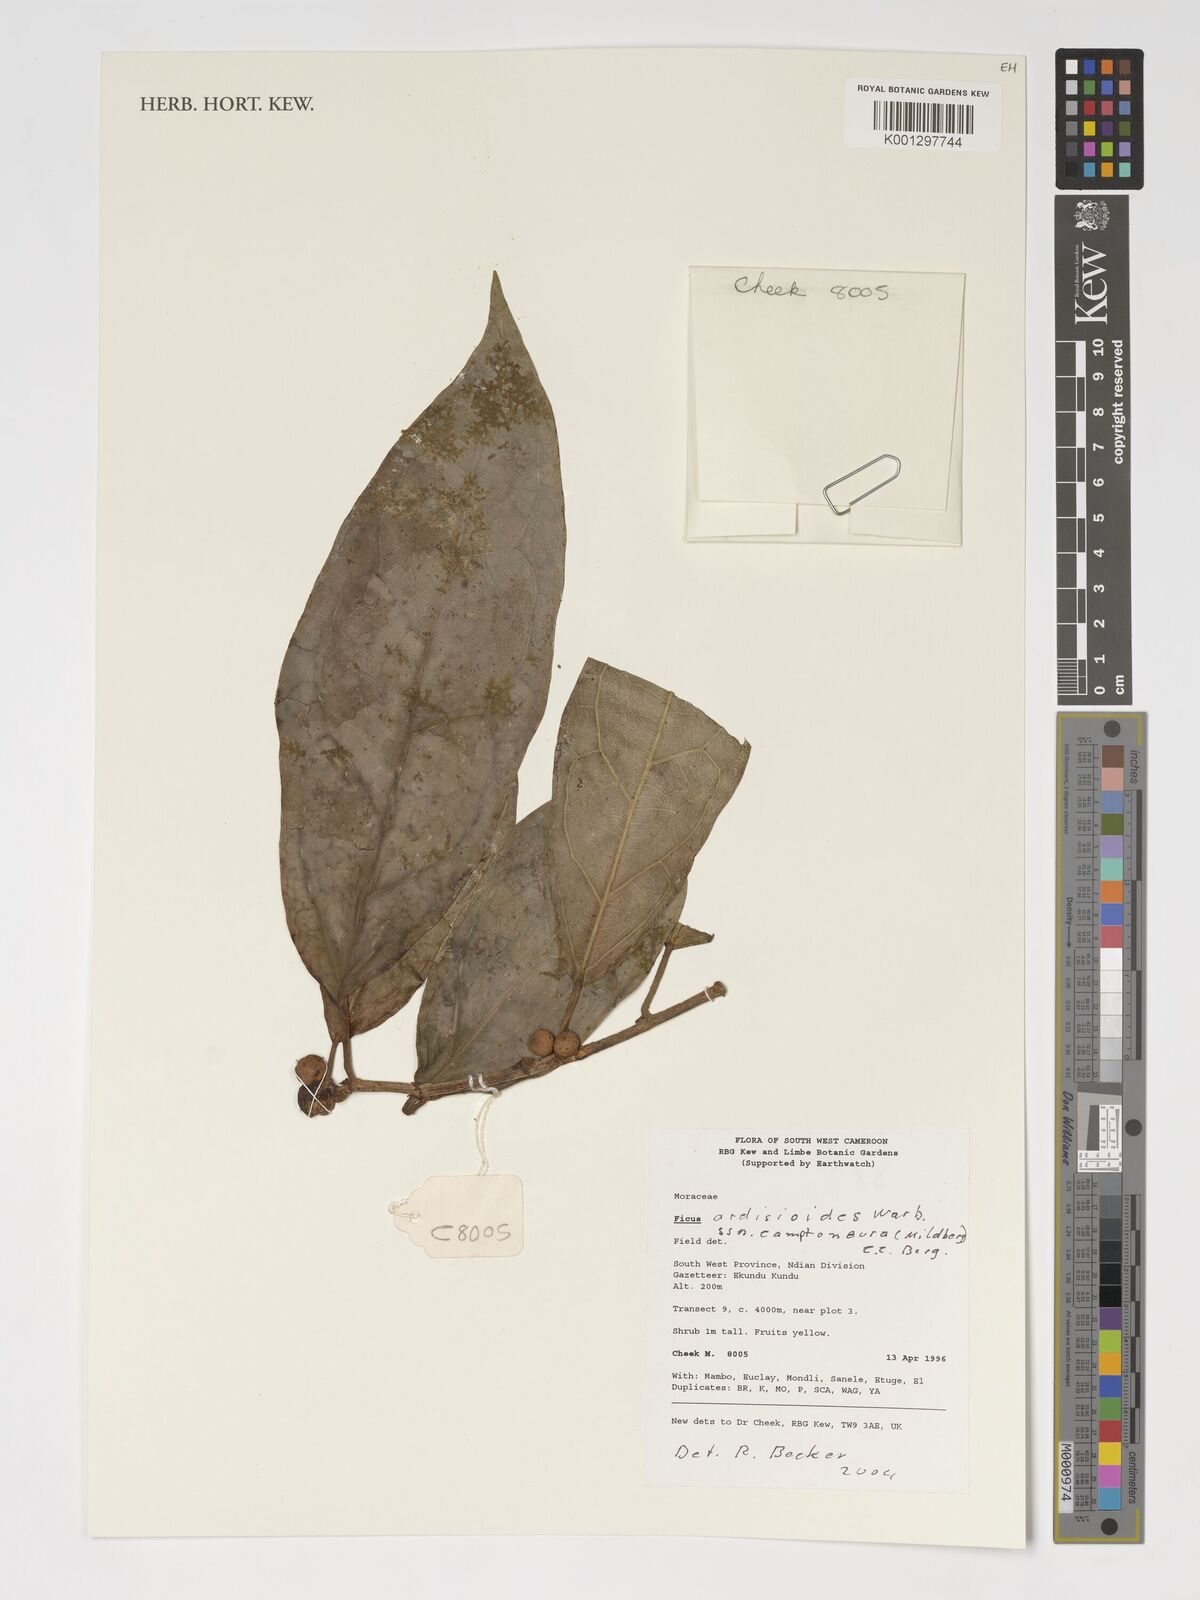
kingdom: Plantae
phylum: Tracheophyta
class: Magnoliopsida
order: Rosales
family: Moraceae
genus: Ficus
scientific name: Ficus ardisioides
